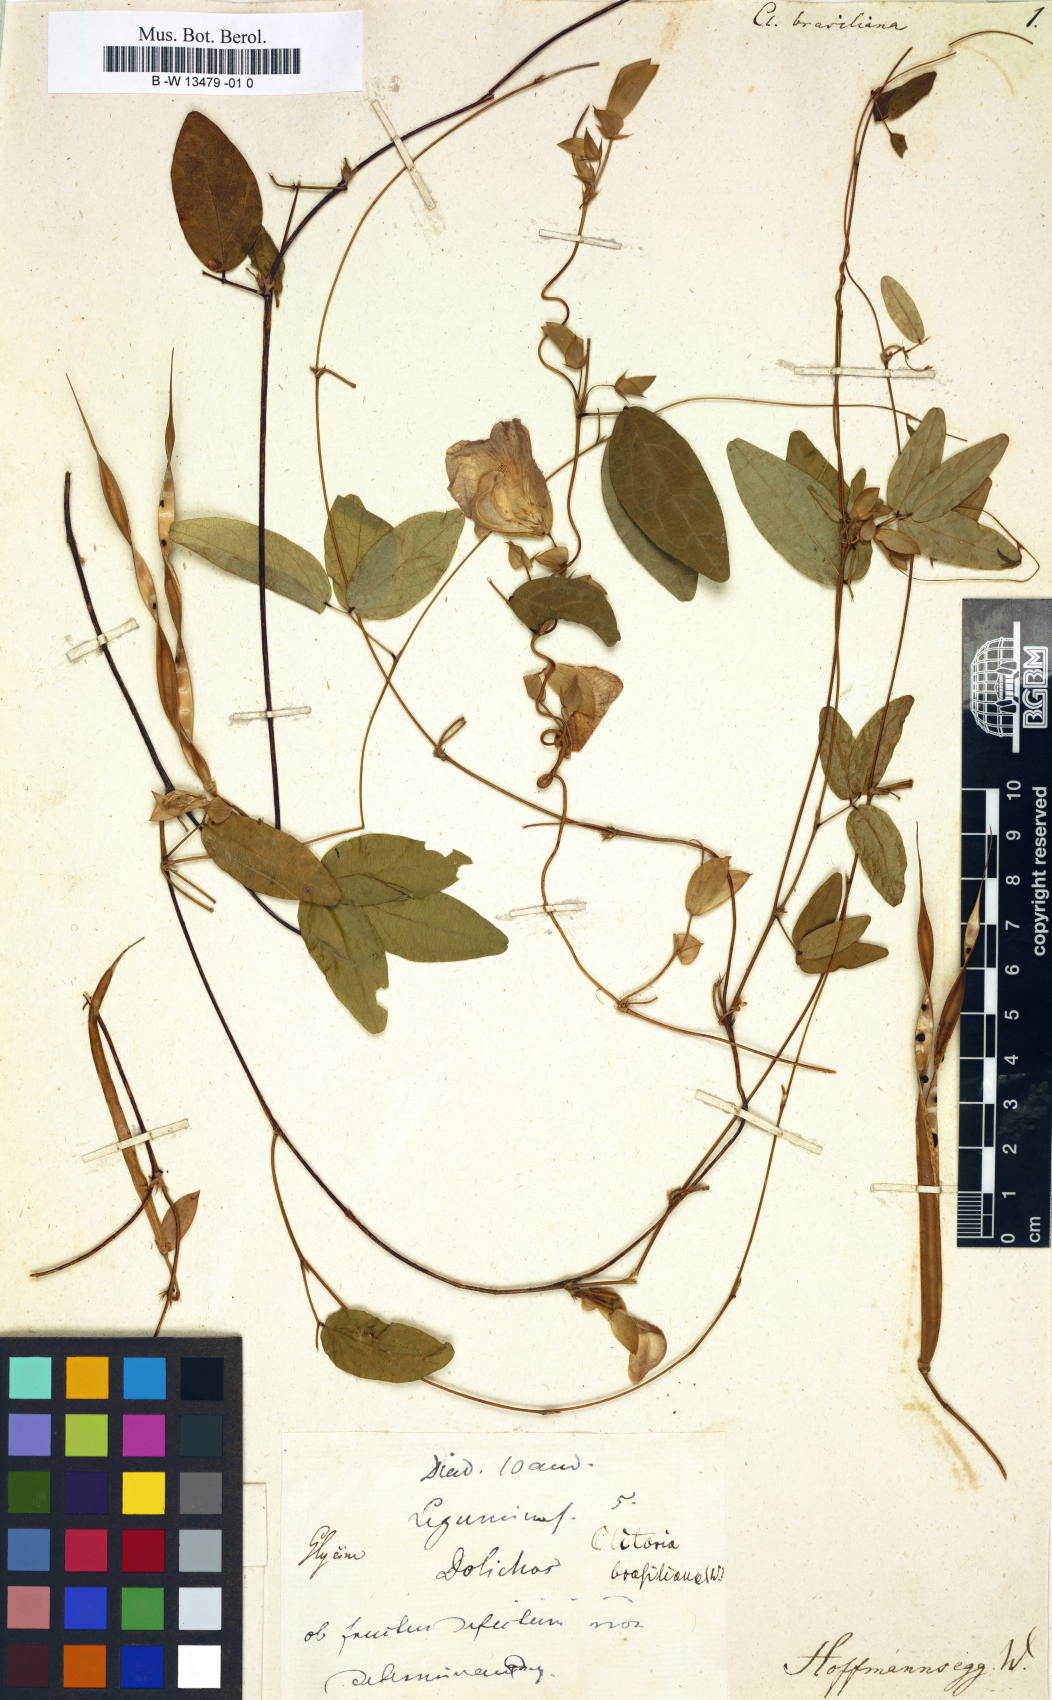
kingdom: Plantae
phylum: Tracheophyta
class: Magnoliopsida
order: Fabales
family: Fabaceae
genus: Centrosema
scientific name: Centrosema brasilianum
